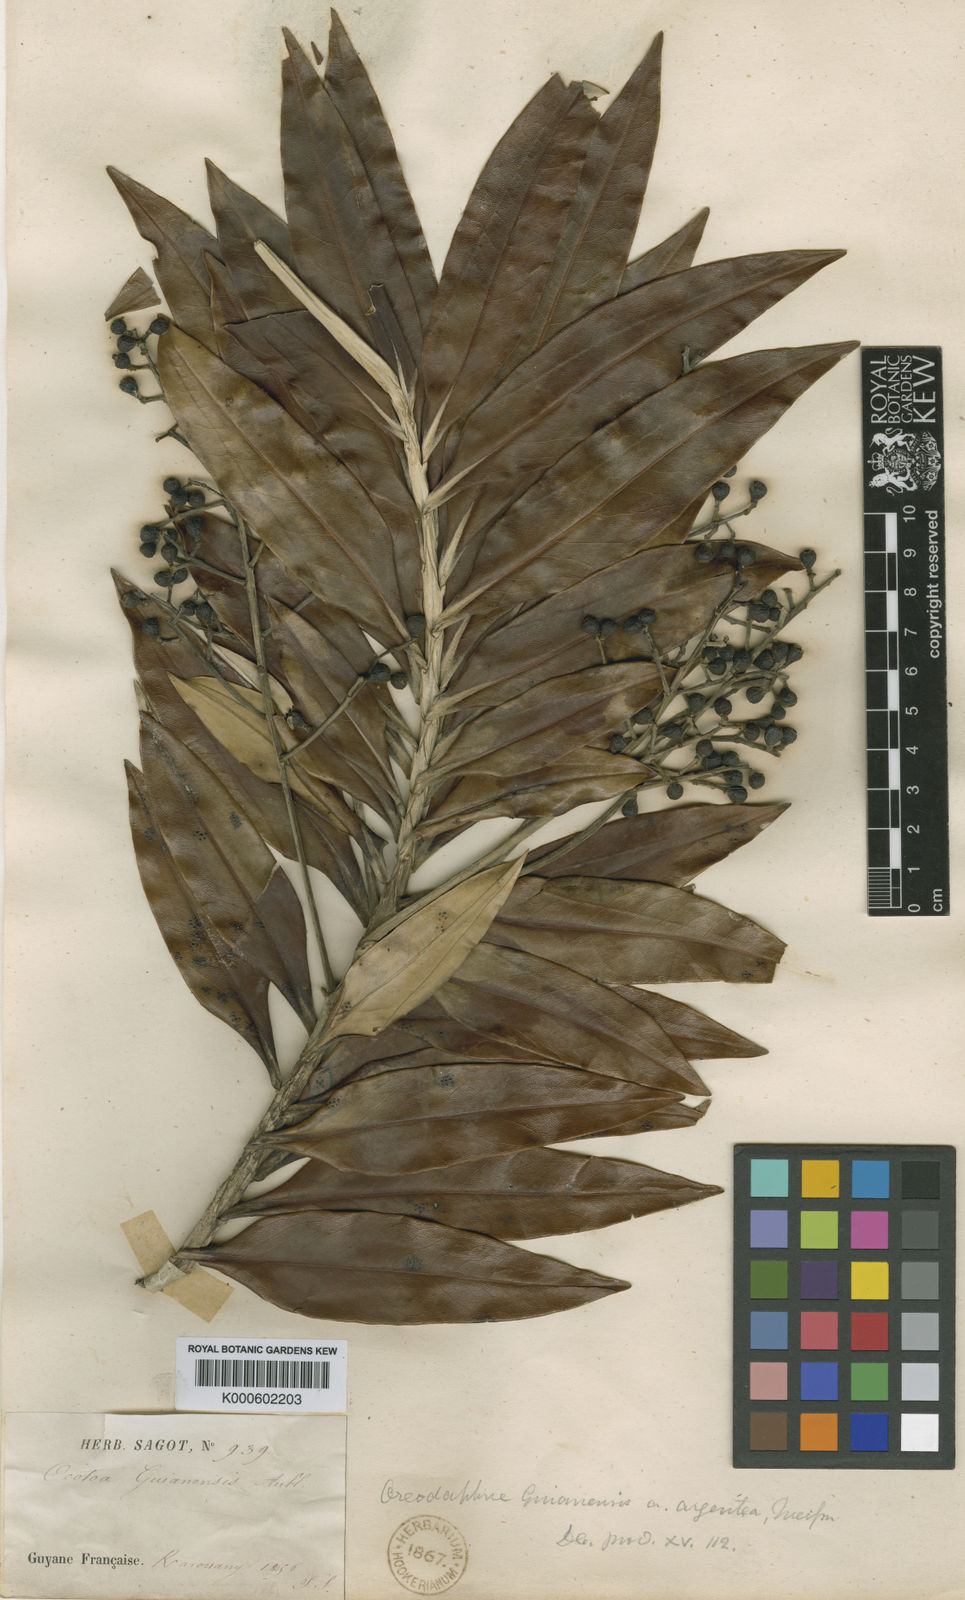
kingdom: Plantae
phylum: Tracheophyta
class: Magnoliopsida
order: Laurales
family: Lauraceae
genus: Ocotea
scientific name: Ocotea guianensis
